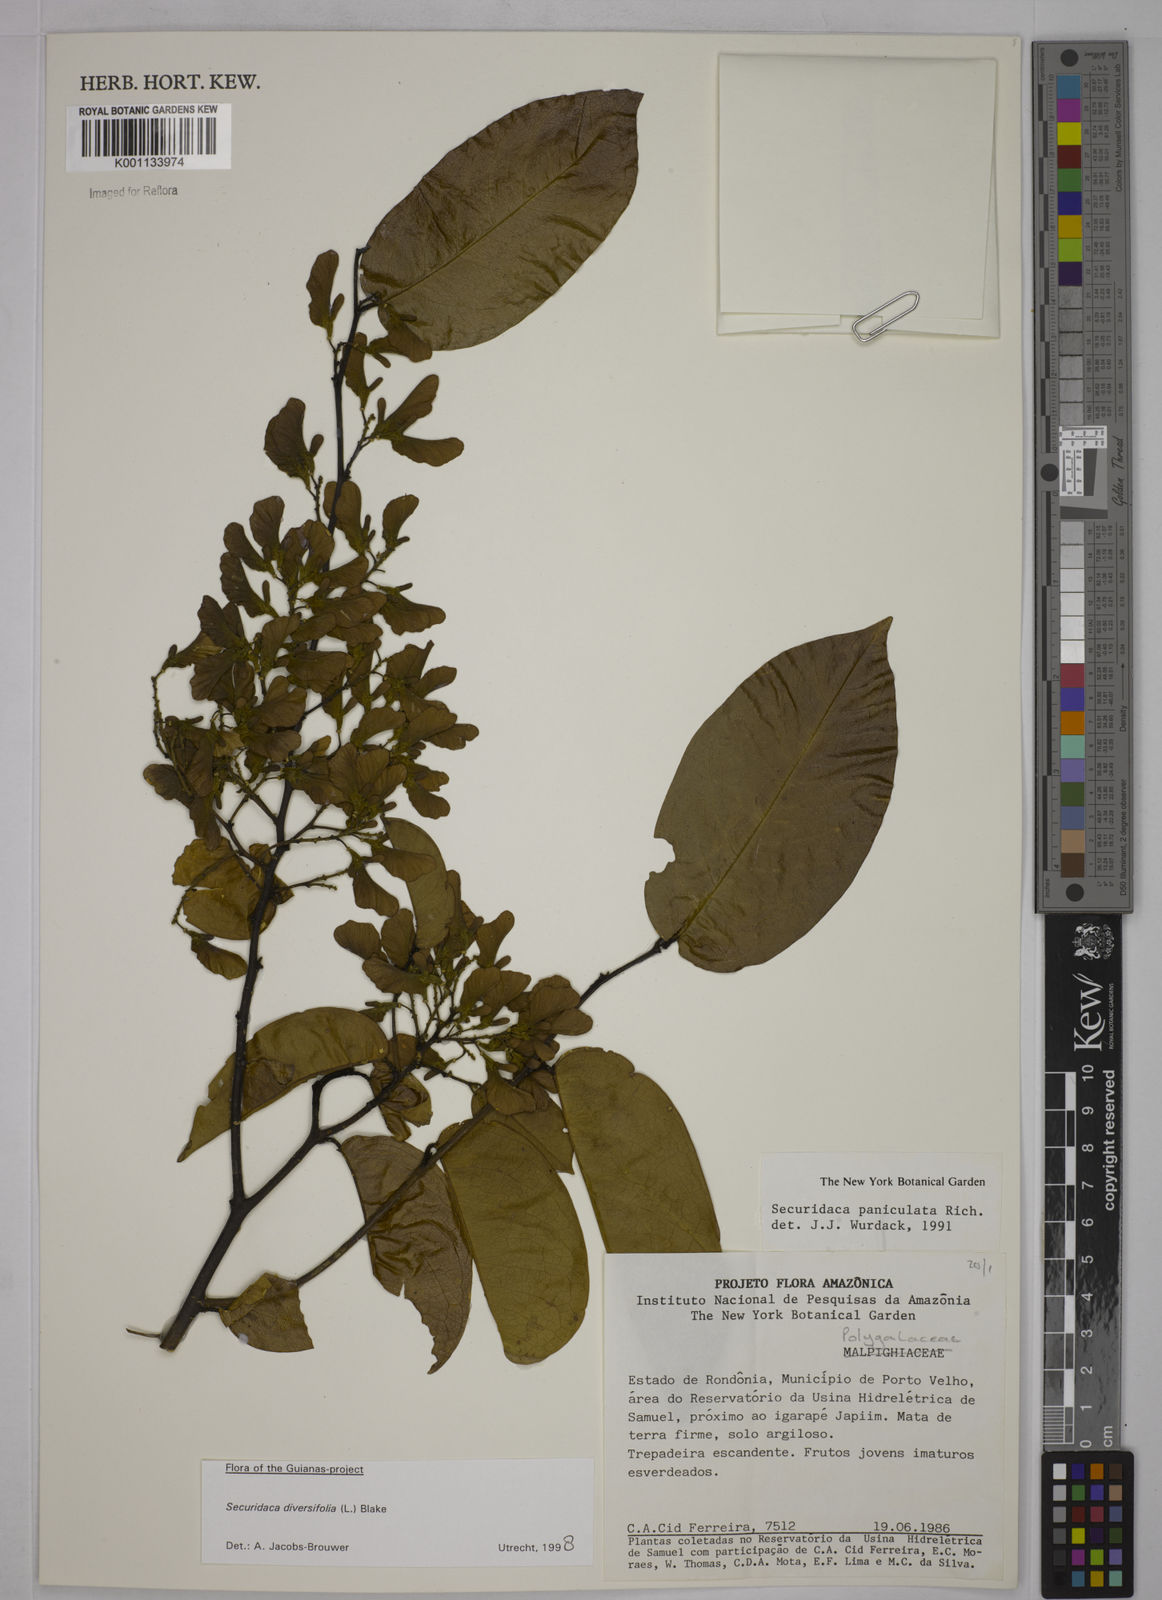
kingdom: Plantae
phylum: Tracheophyta
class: Magnoliopsida
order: Fabales
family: Polygalaceae
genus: Securidaca
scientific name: Securidaca diversifolia
